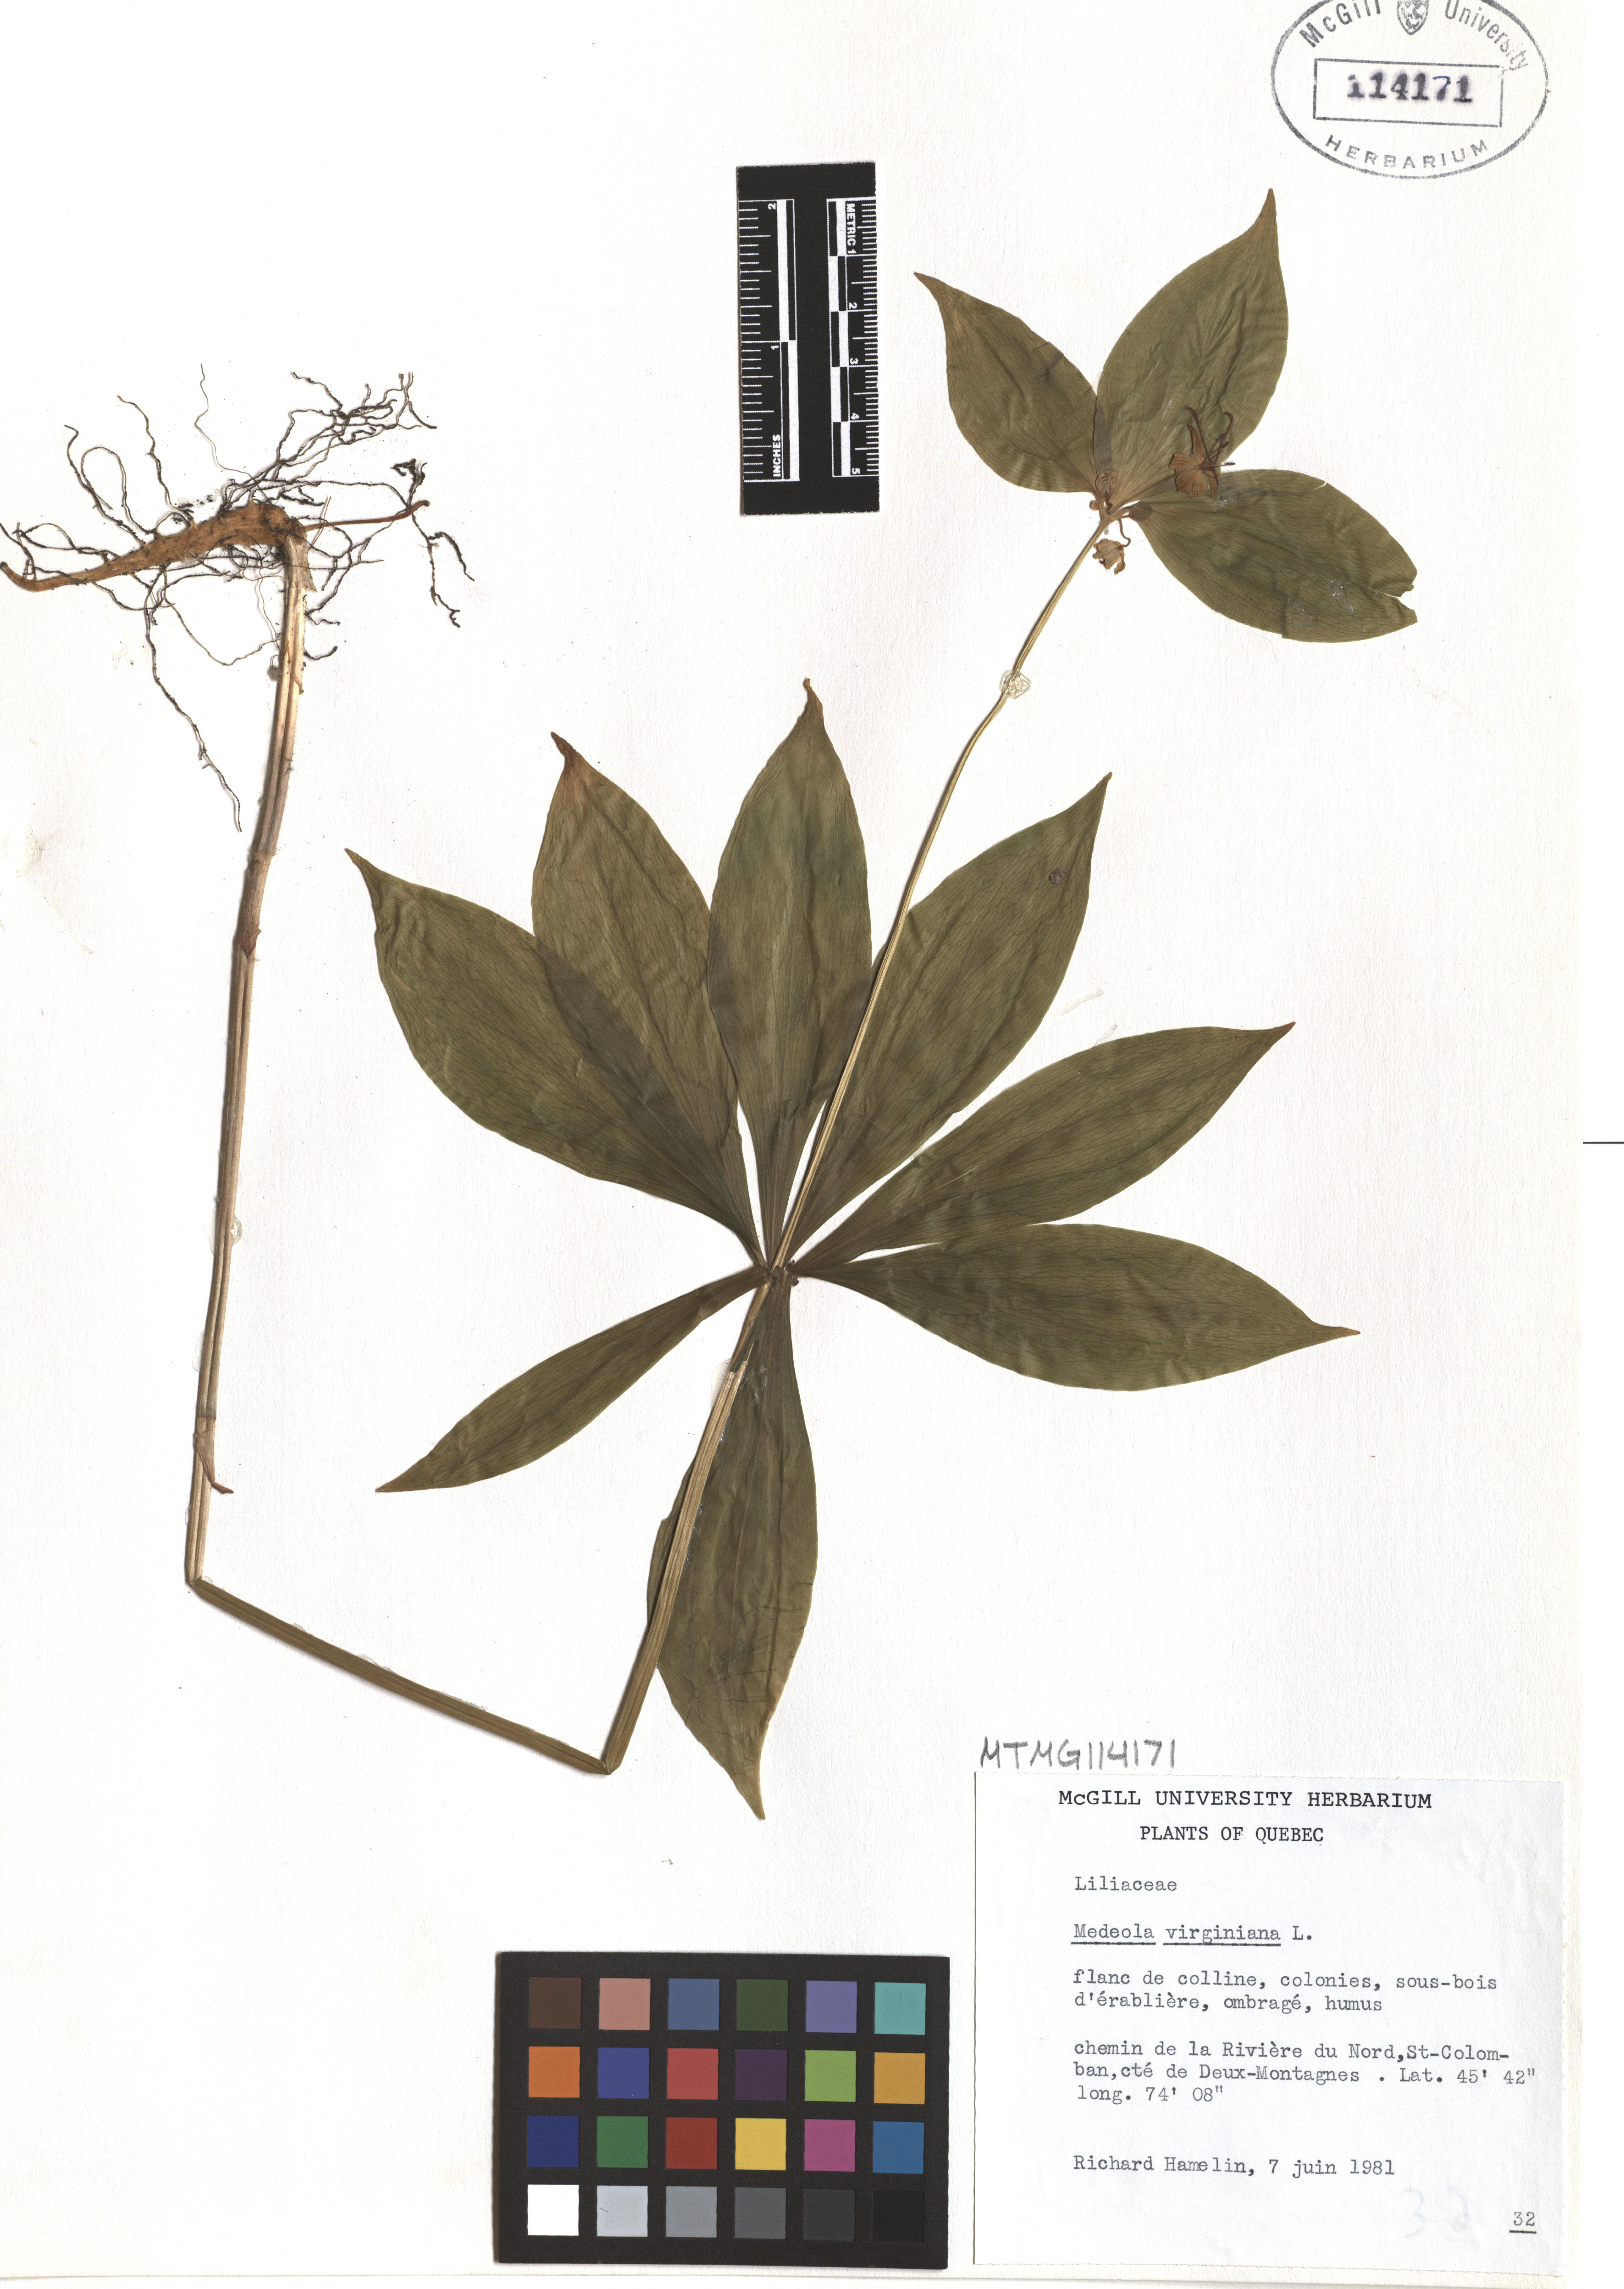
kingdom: Plantae
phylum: Tracheophyta
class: Liliopsida
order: Liliales
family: Liliaceae
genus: Medeola
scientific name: Medeola virginiana
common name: Indian cucumber-root
